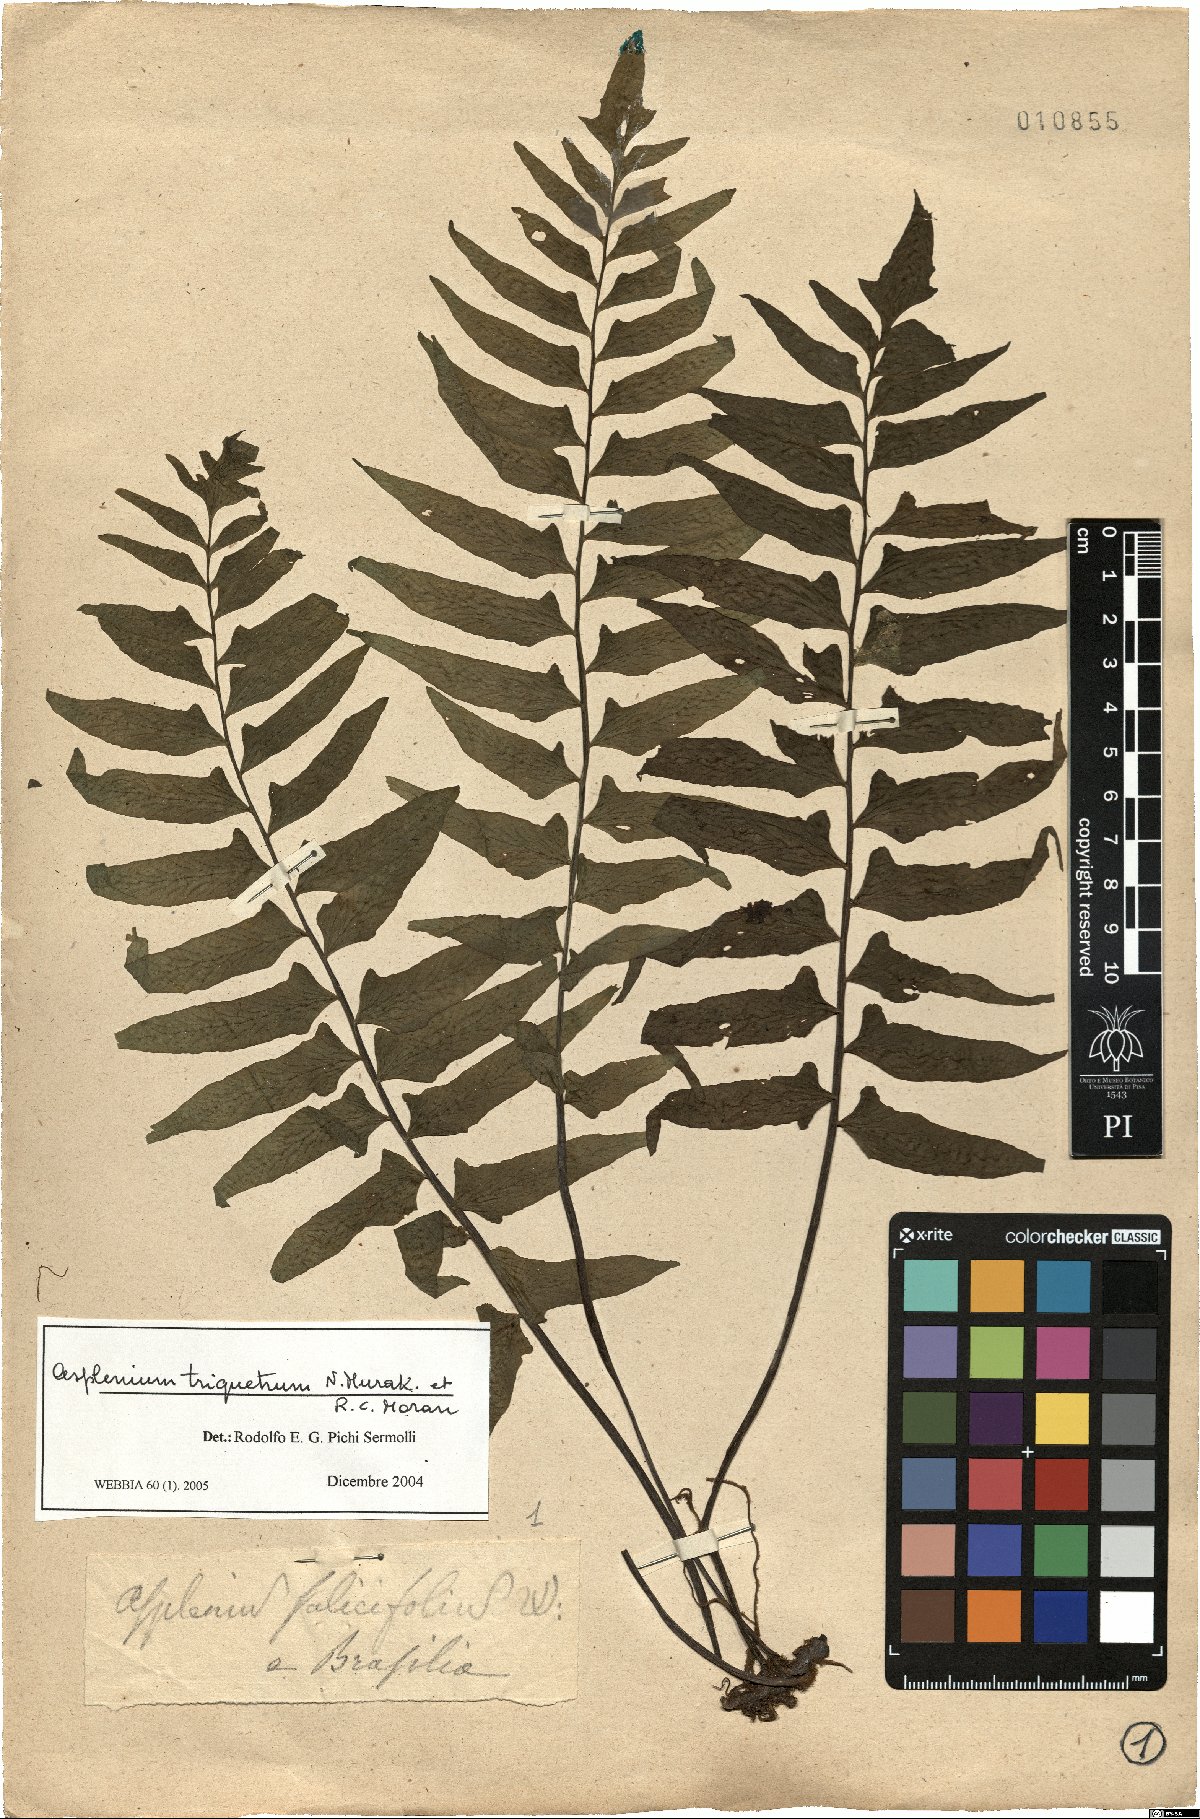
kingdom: Plantae
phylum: Tracheophyta
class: Polypodiopsida
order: Polypodiales
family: Aspleniaceae
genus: Hymenasplenium
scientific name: Hymenasplenium triquetrum
